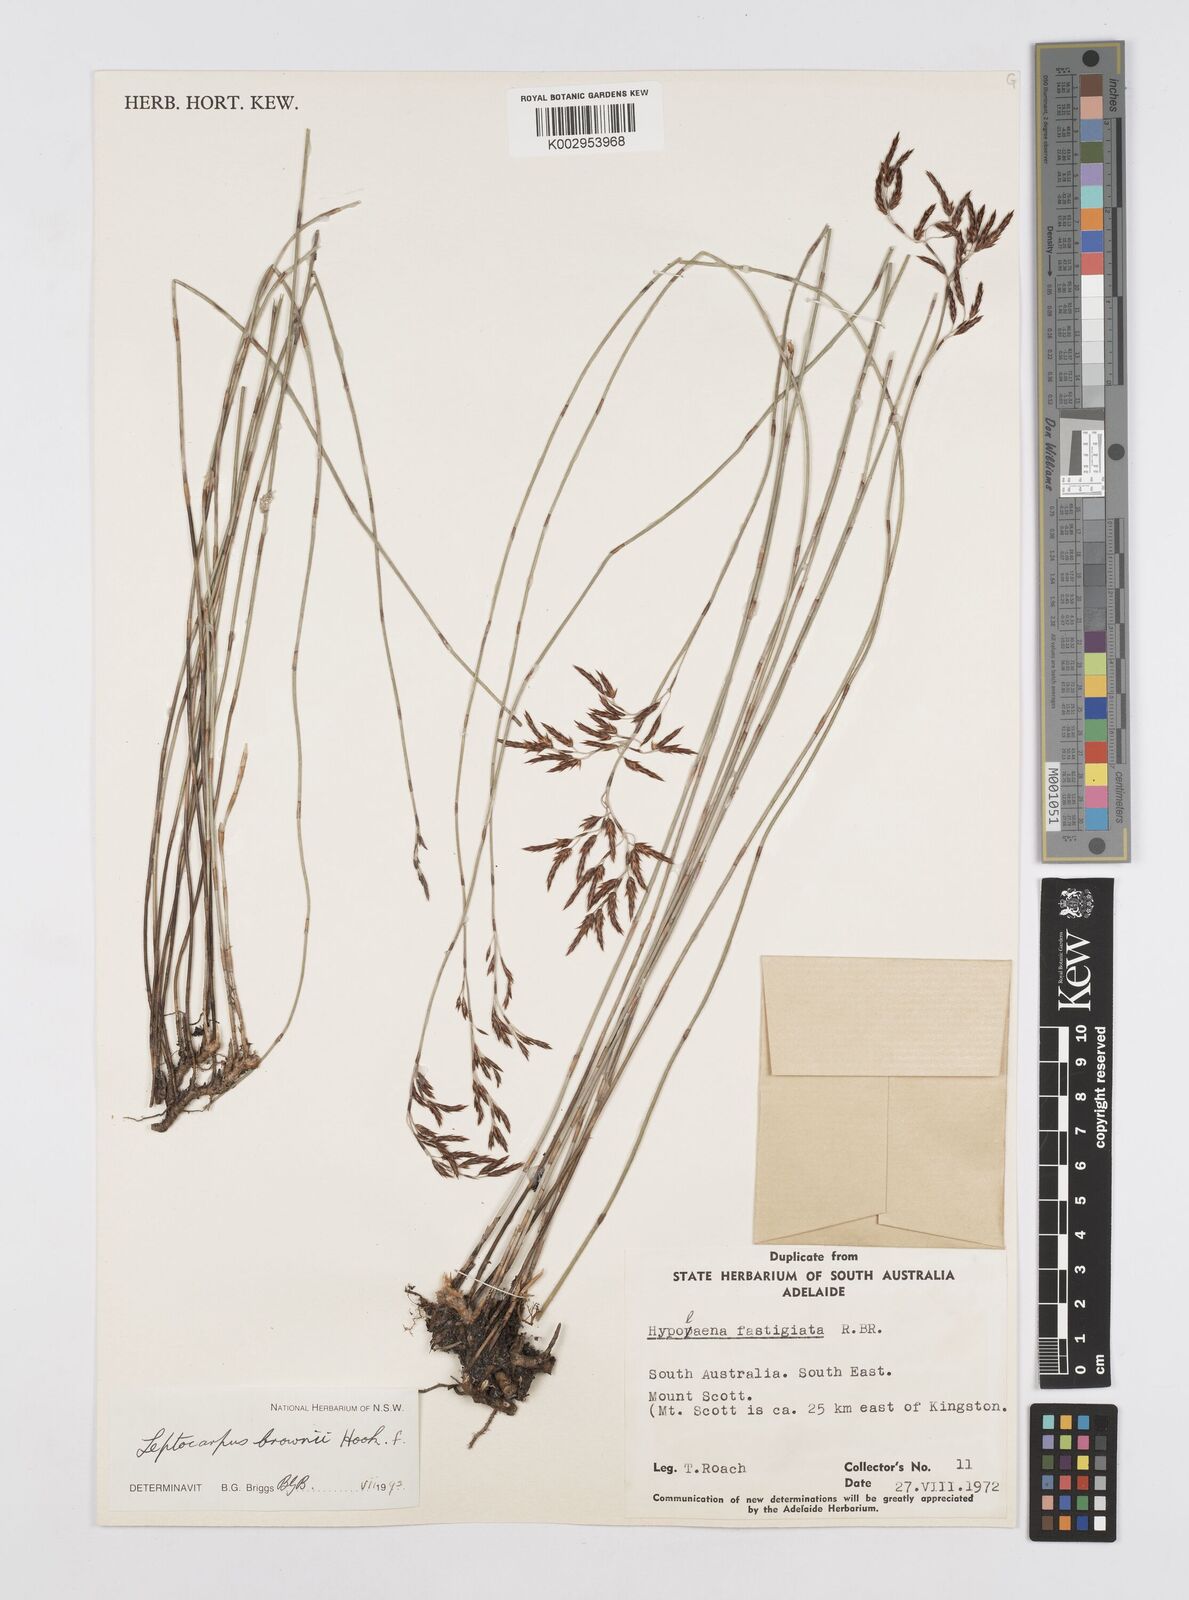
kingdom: Plantae
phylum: Tracheophyta
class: Liliopsida
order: Poales
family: Restionaceae
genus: Apodasmia
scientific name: Apodasmia brownii
